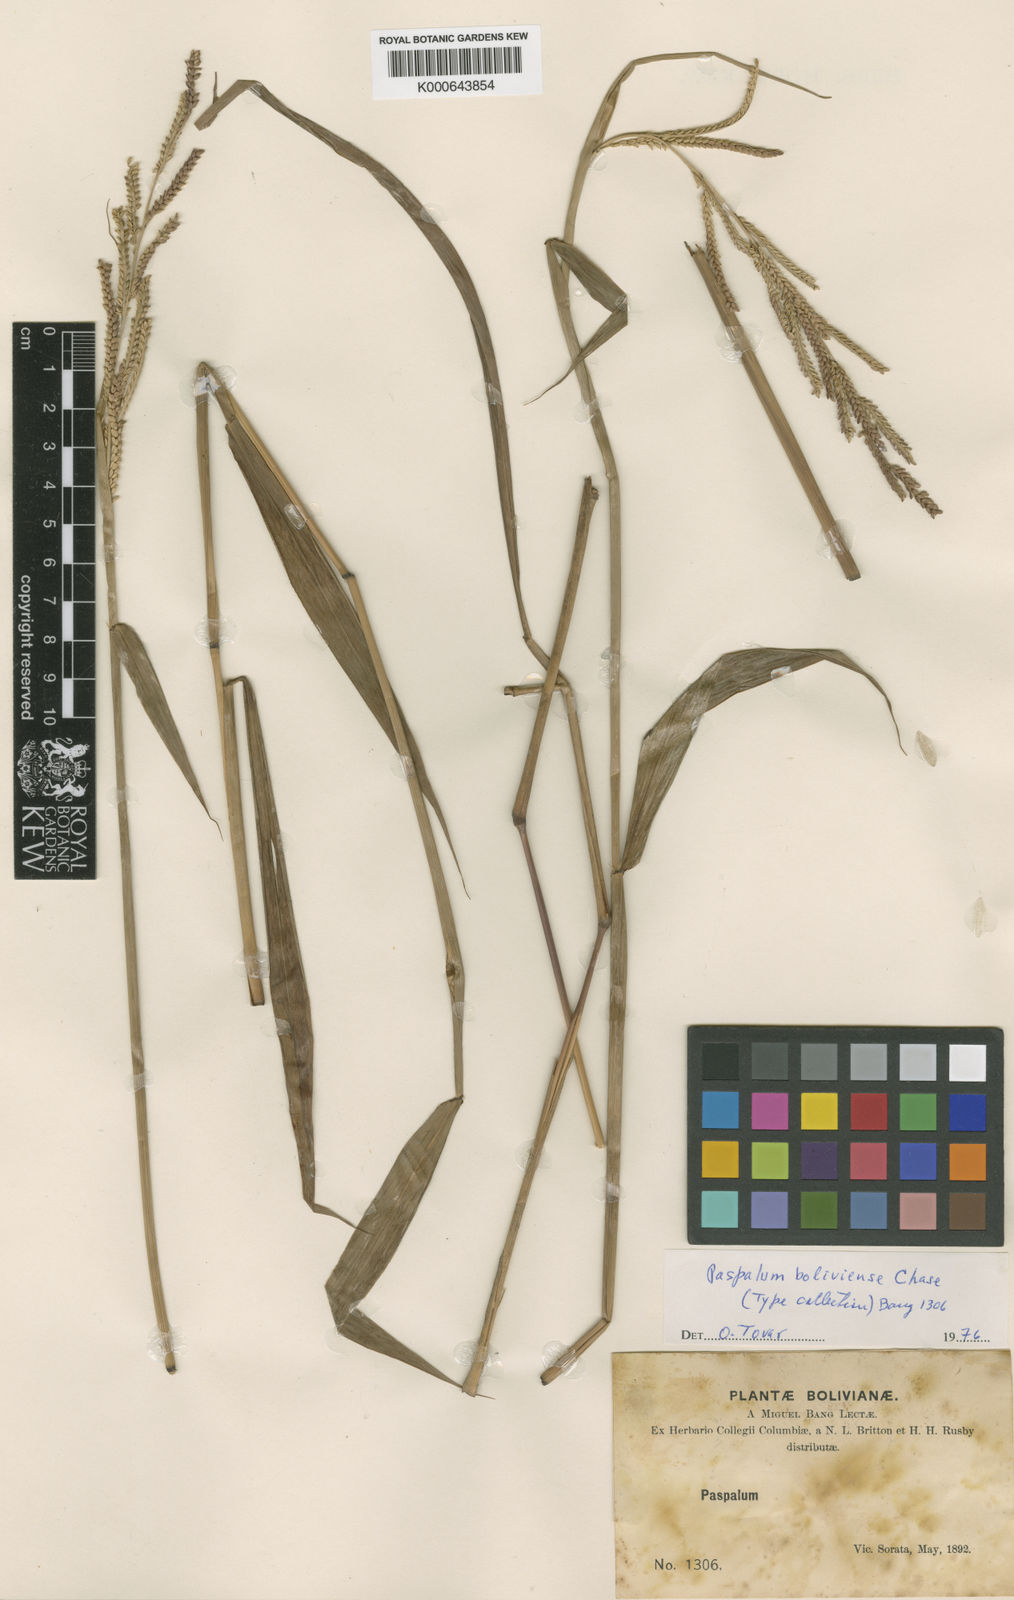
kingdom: Plantae
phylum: Tracheophyta
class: Liliopsida
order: Poales
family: Poaceae
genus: Paspalum
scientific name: Paspalum malacophyllum
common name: Ribbed paspalum
